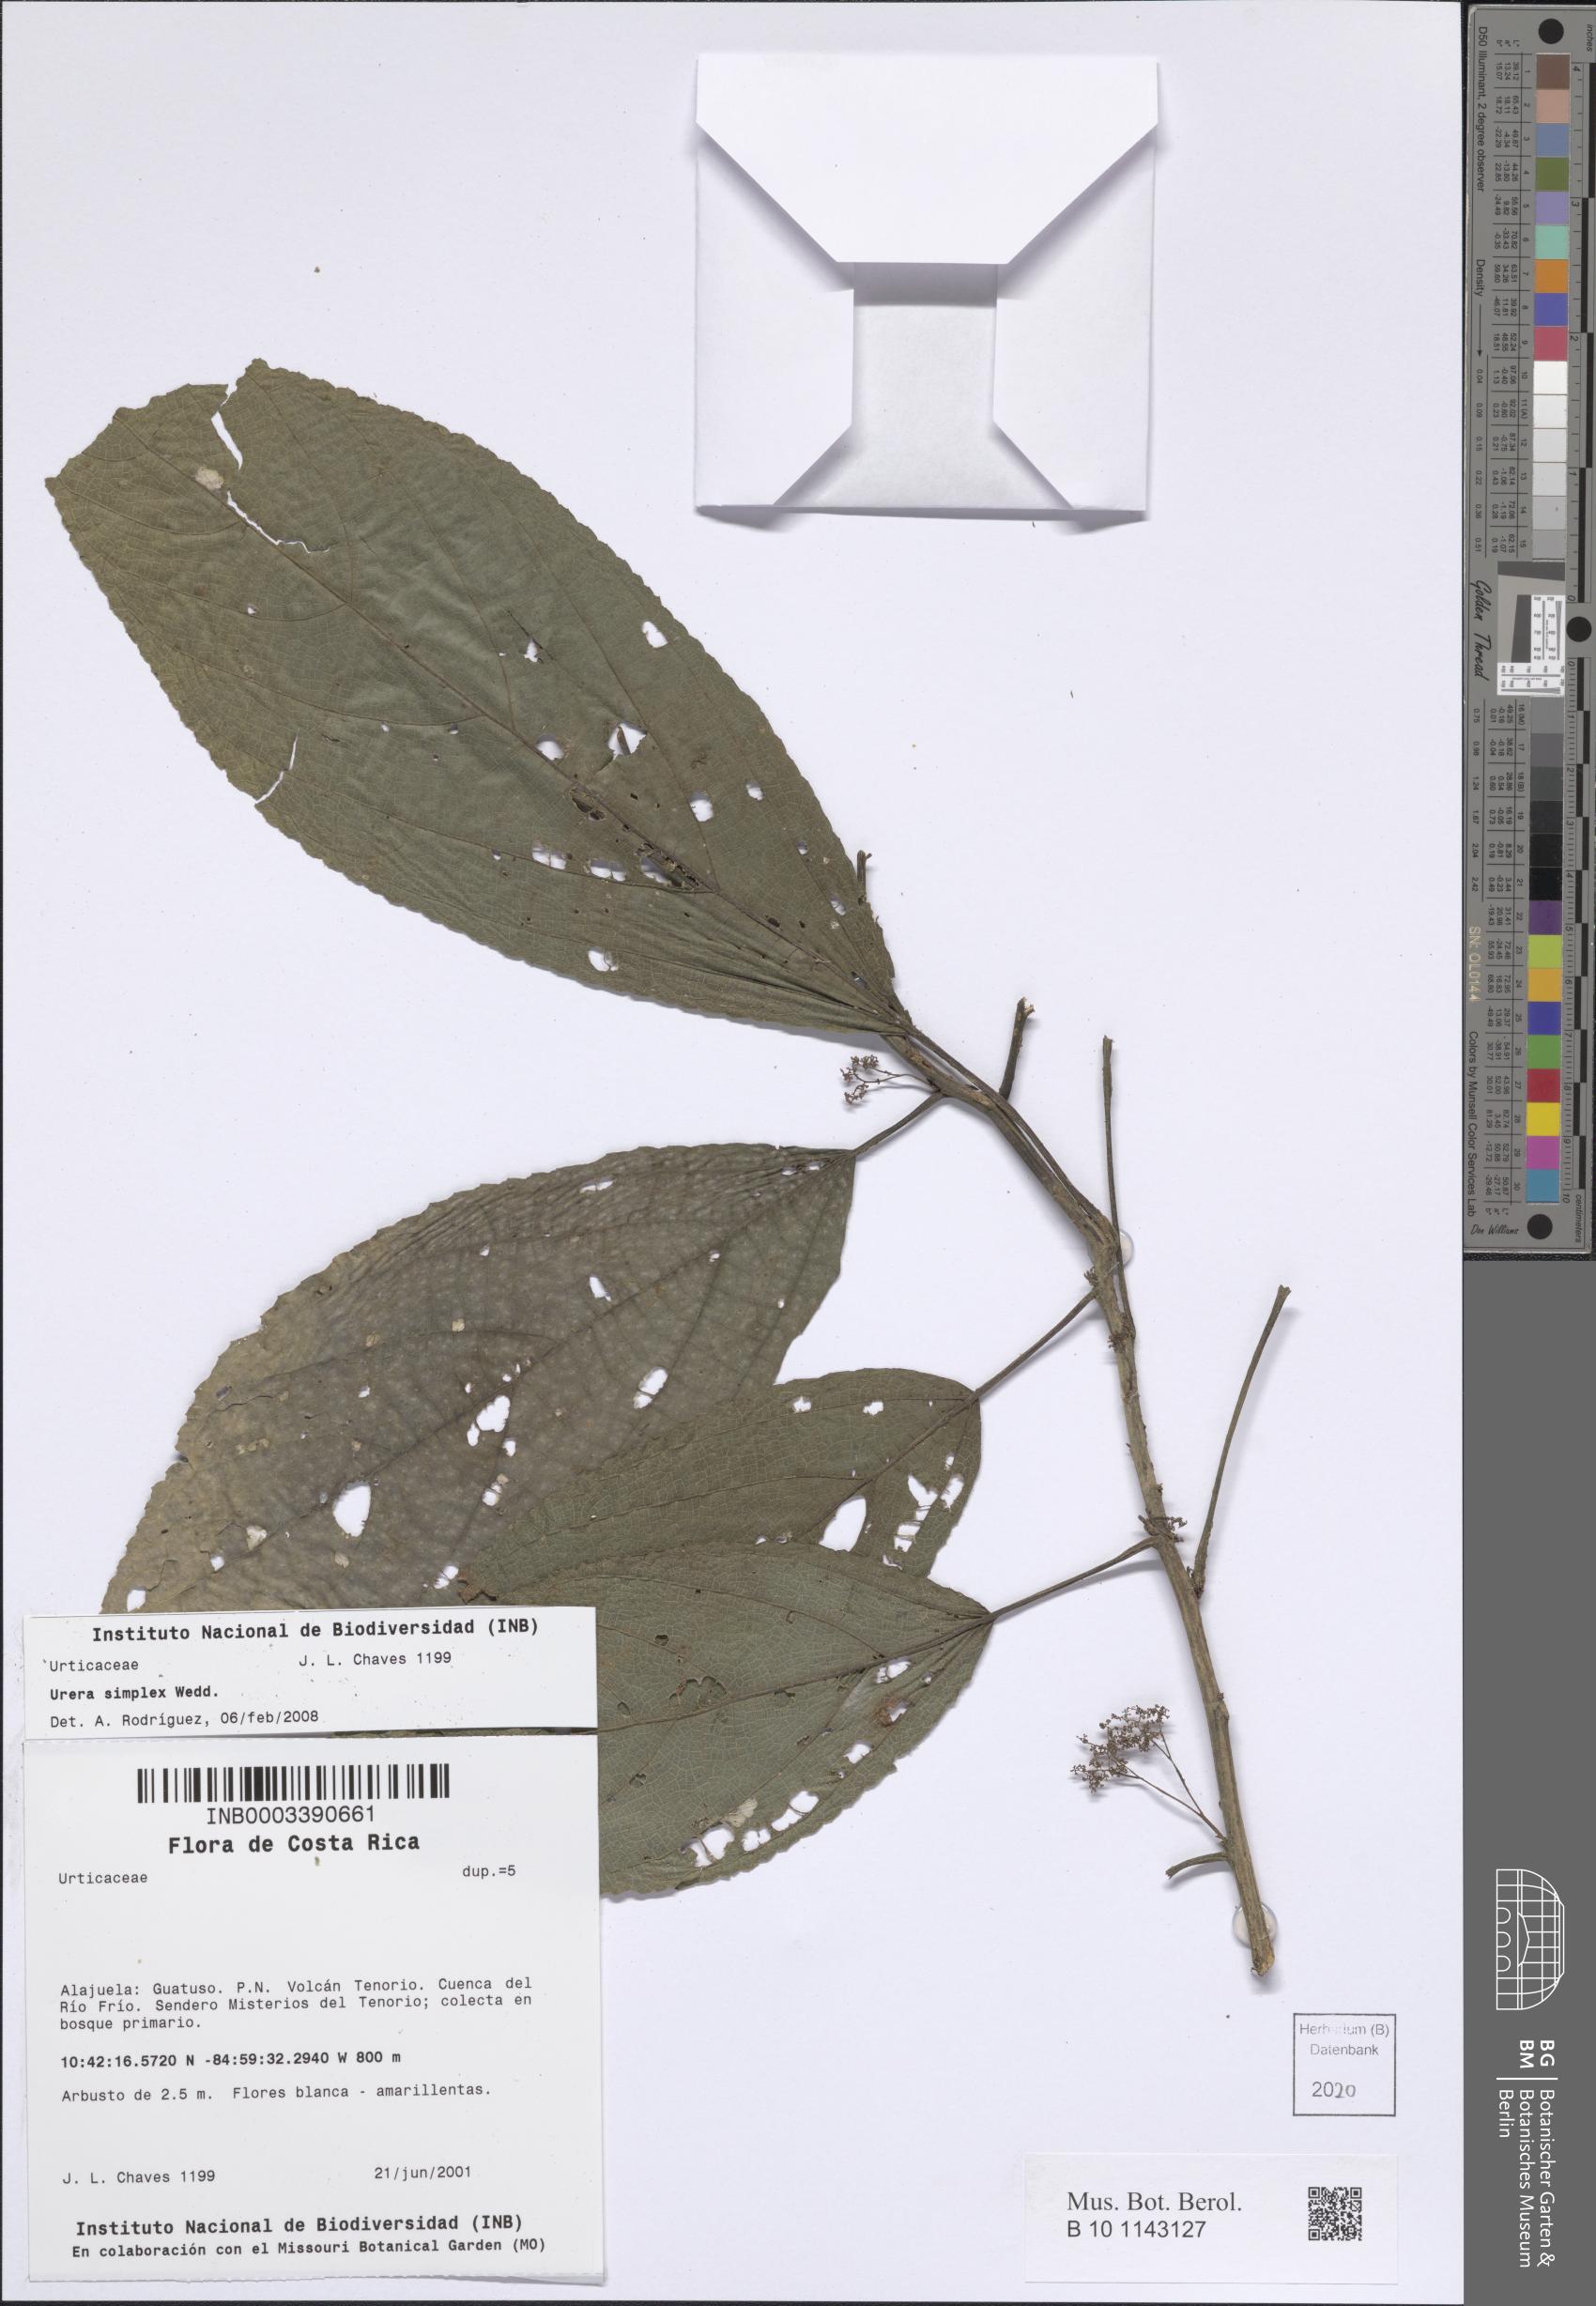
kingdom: Plantae
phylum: Tracheophyta
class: Magnoliopsida
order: Rosales
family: Urticaceae
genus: Urera
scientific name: Urera simplex
